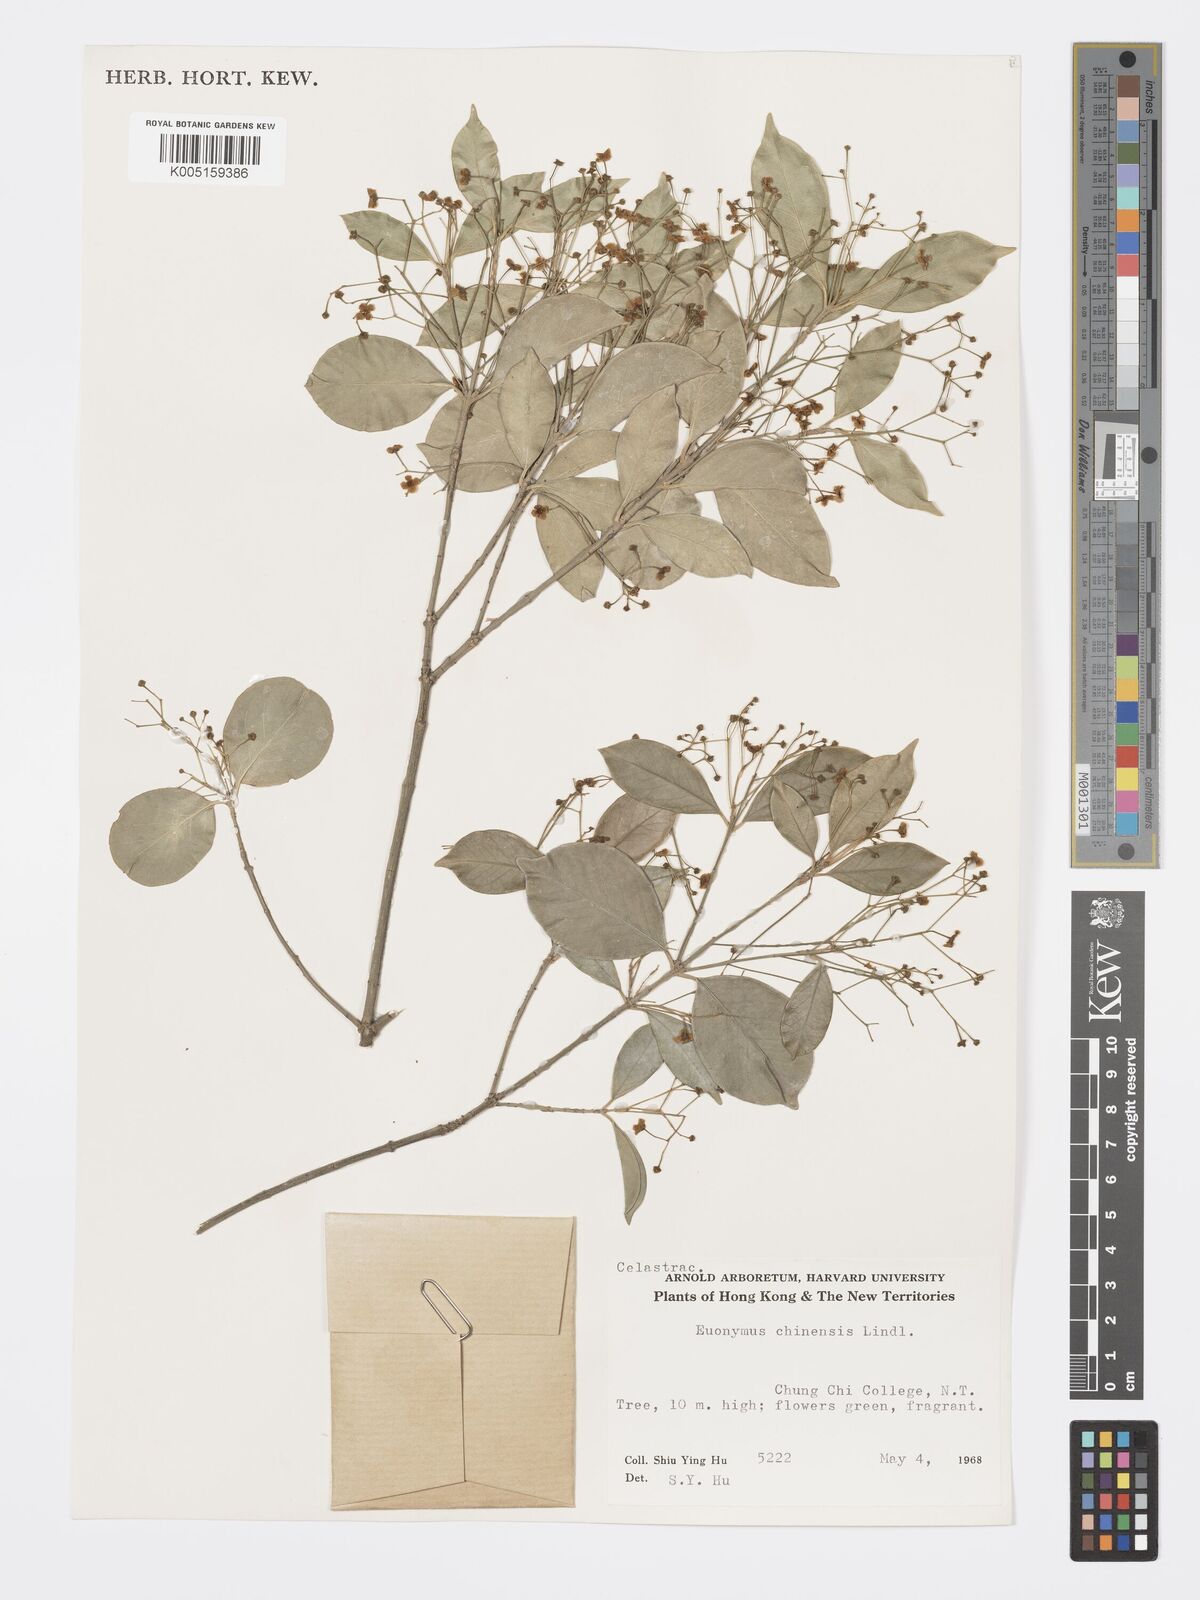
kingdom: Plantae
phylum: Tracheophyta
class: Magnoliopsida
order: Celastrales
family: Celastraceae
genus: Euonymus
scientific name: Euonymus nitidus
